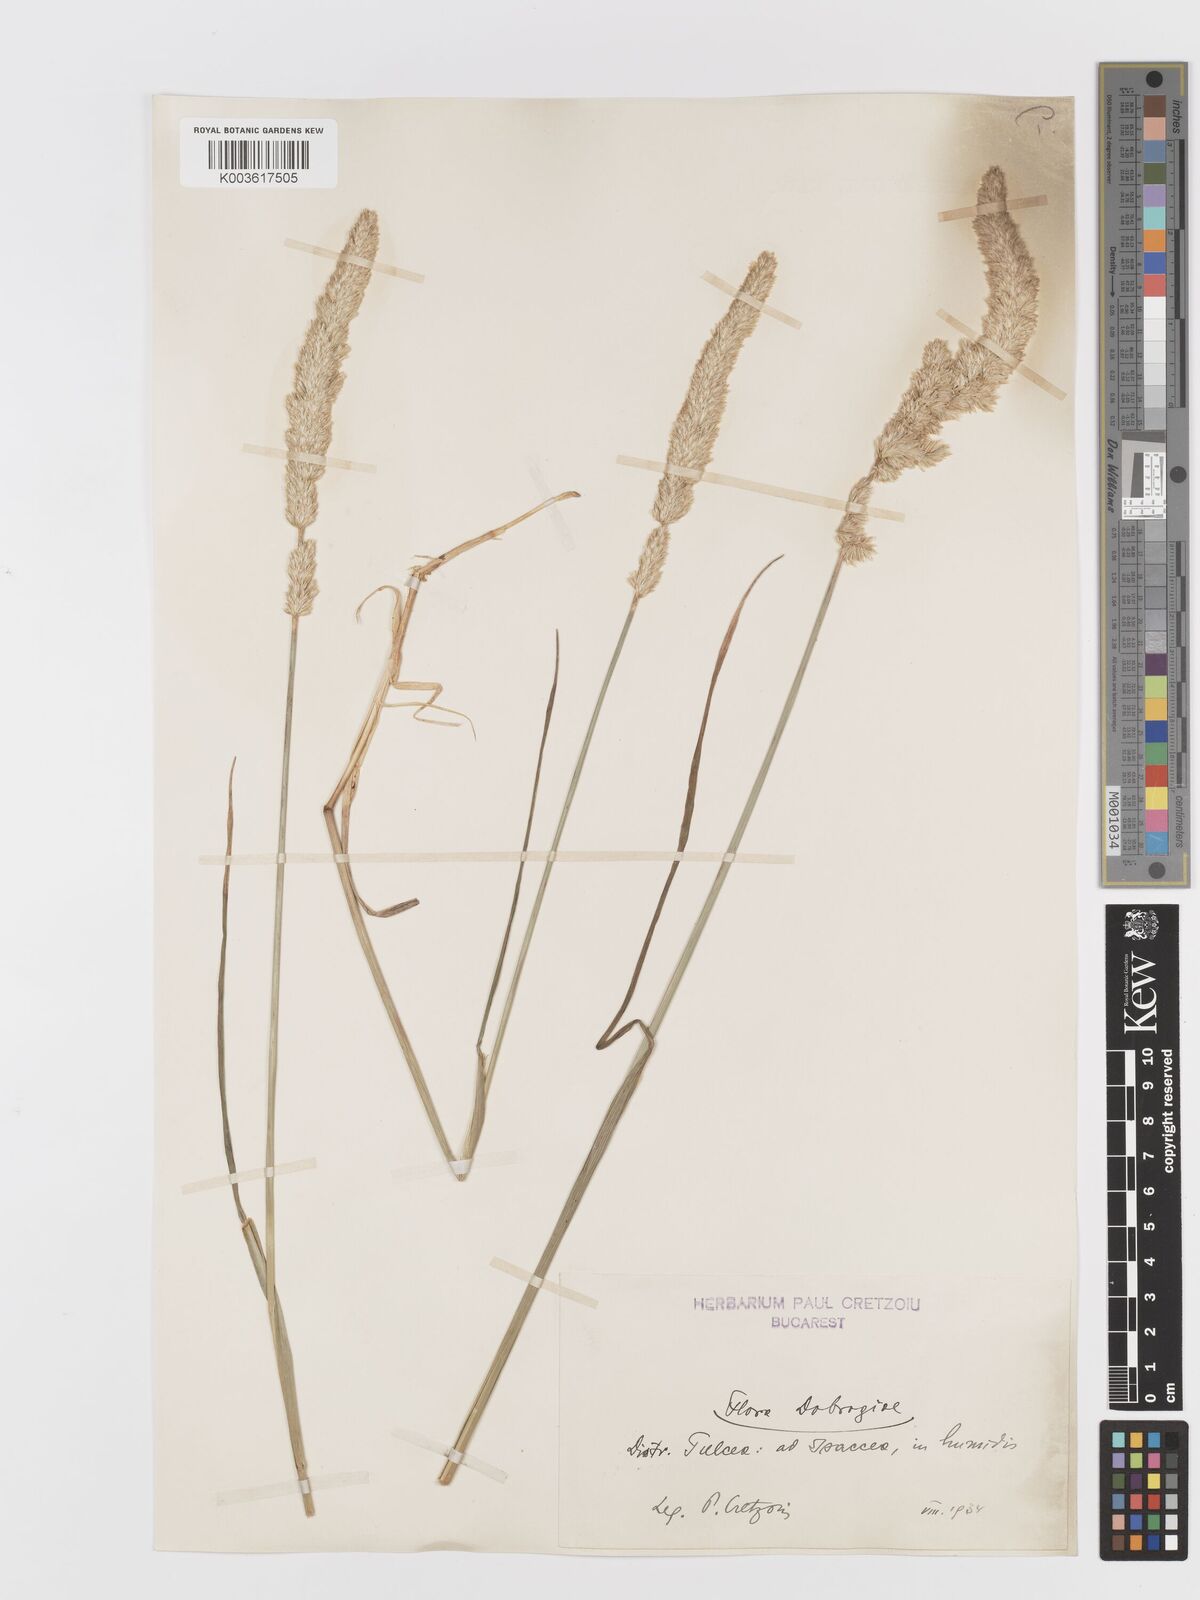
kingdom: Plantae
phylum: Tracheophyta
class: Liliopsida
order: Poales
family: Poaceae
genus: Koeleria
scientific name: Koeleria
